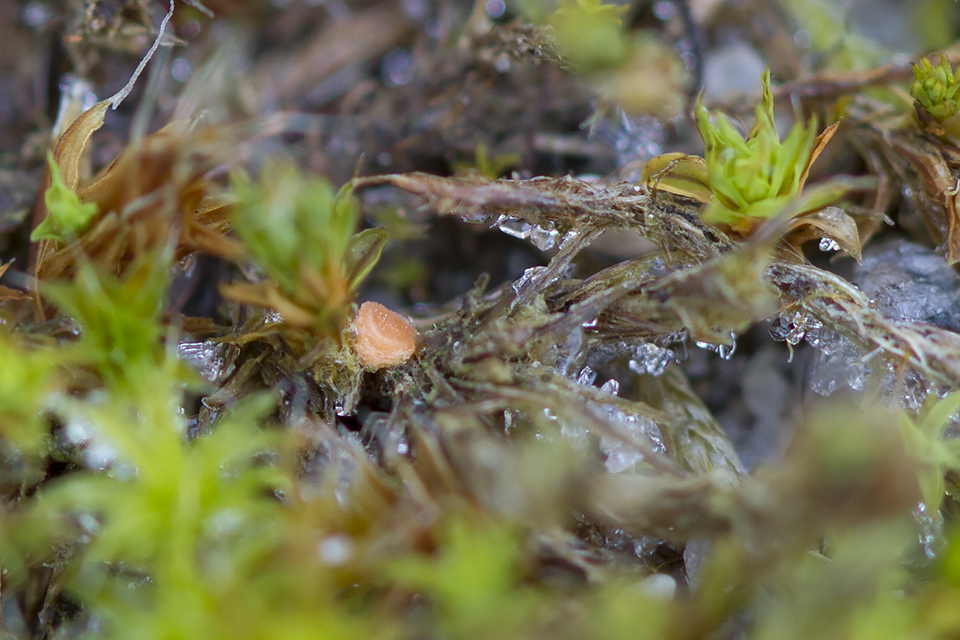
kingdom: Fungi
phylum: Ascomycota
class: Pezizomycetes
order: Pezizales
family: Pyronemataceae
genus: Octospora
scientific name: Octospora neerlandica
